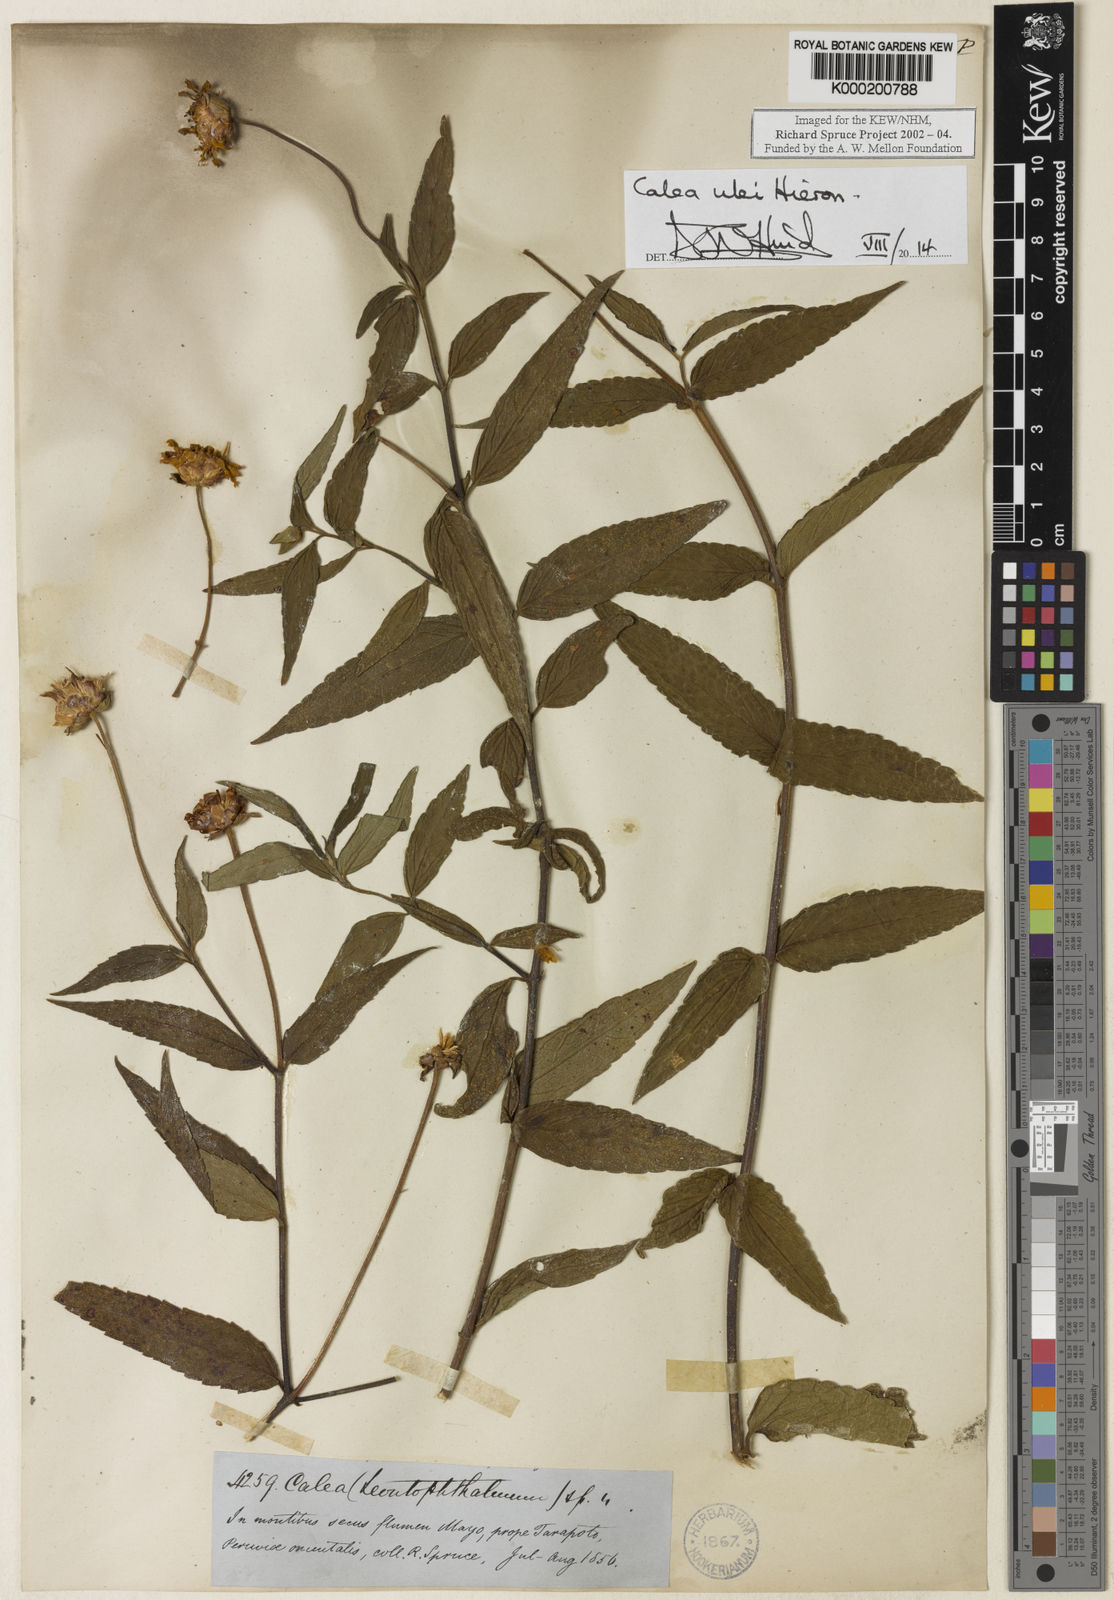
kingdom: Plantae
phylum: Tracheophyta
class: Magnoliopsida
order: Asterales
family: Asteraceae
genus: Calea
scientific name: Calea ulei
